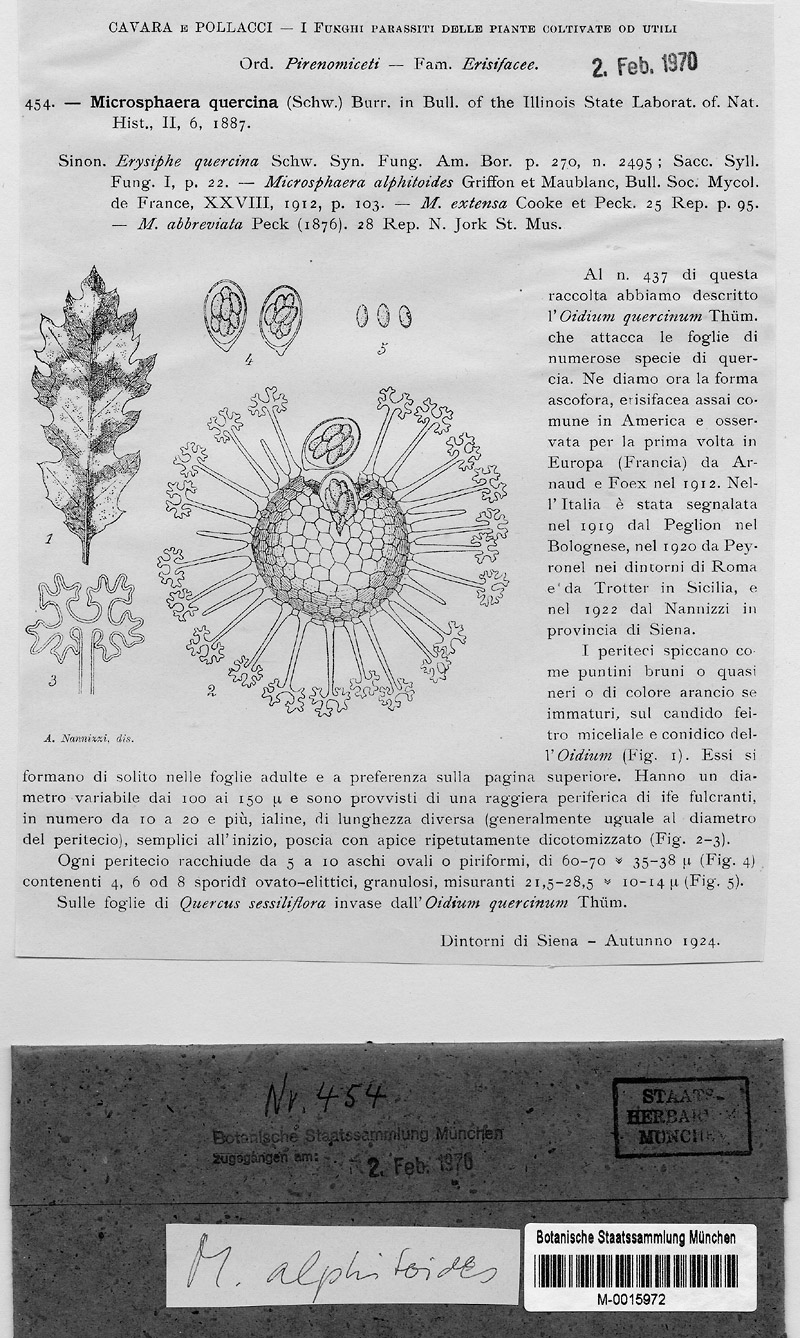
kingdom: Plantae
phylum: Tracheophyta
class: Magnoliopsida
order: Fagales
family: Fagaceae
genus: Quercus
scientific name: Quercus petraea
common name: Sessile oak
